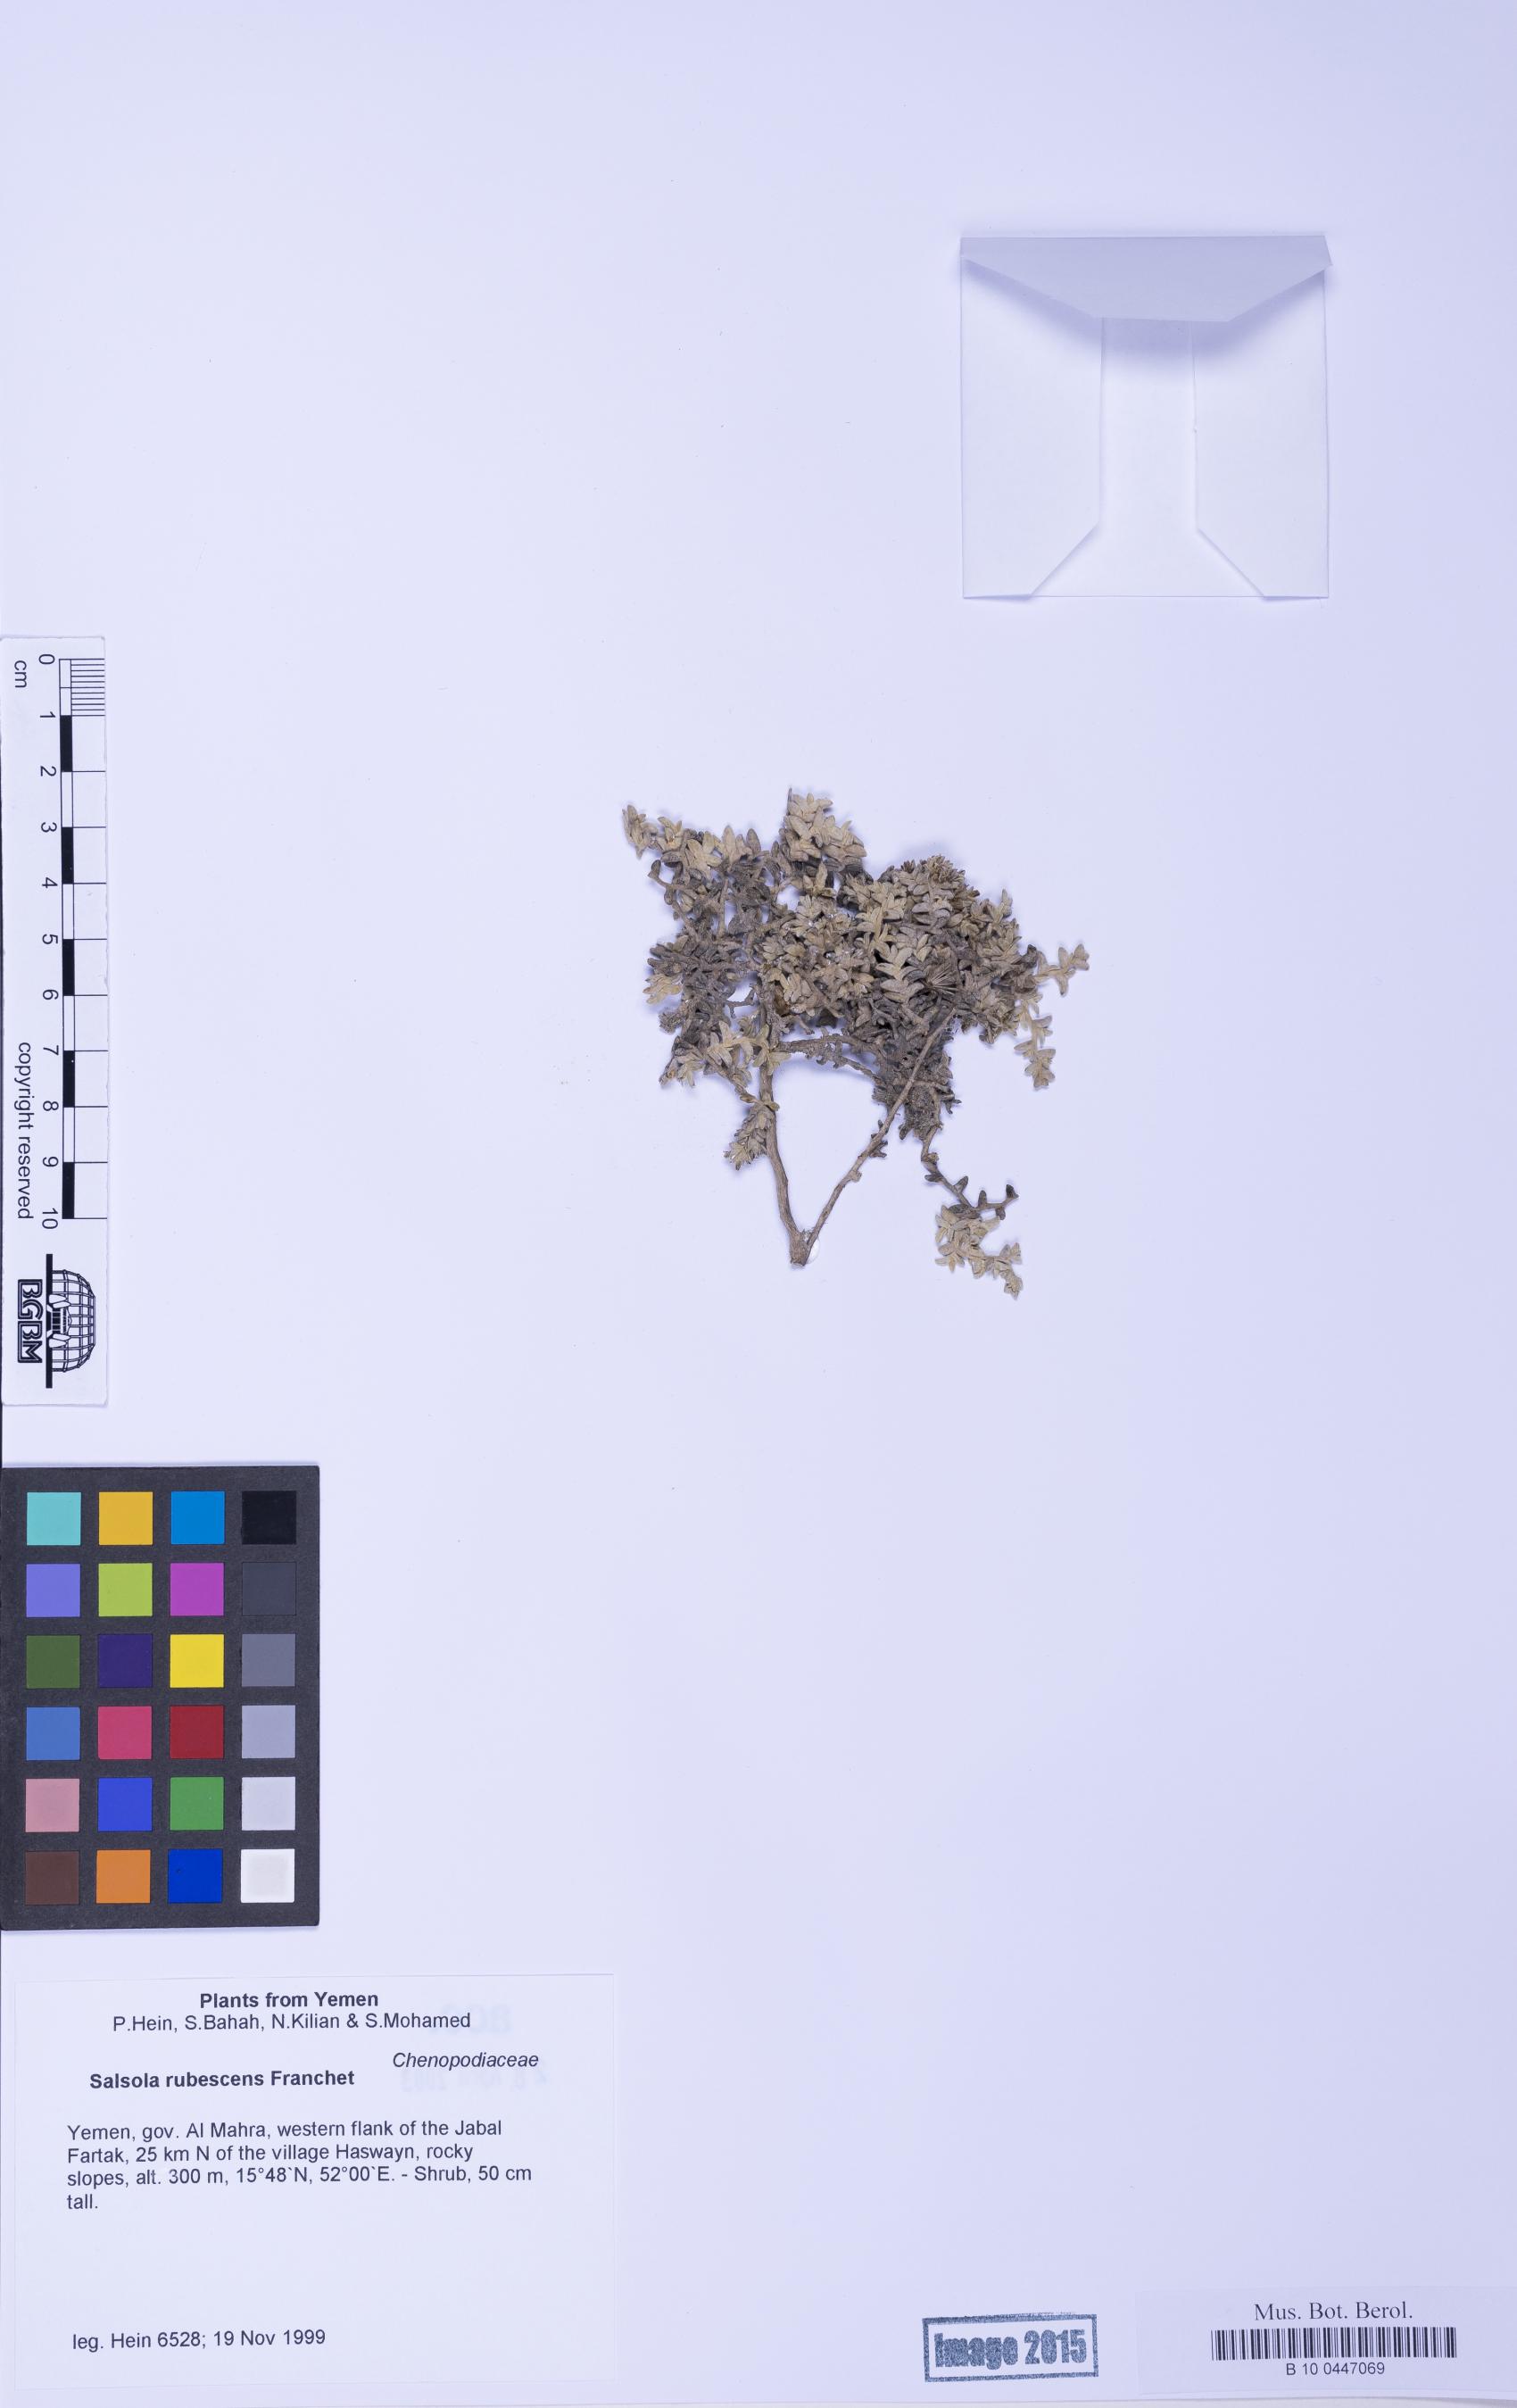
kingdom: Plantae
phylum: Tracheophyta
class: Magnoliopsida
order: Caryophyllales
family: Amaranthaceae
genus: Kaviria
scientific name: Kaviria rubescens
